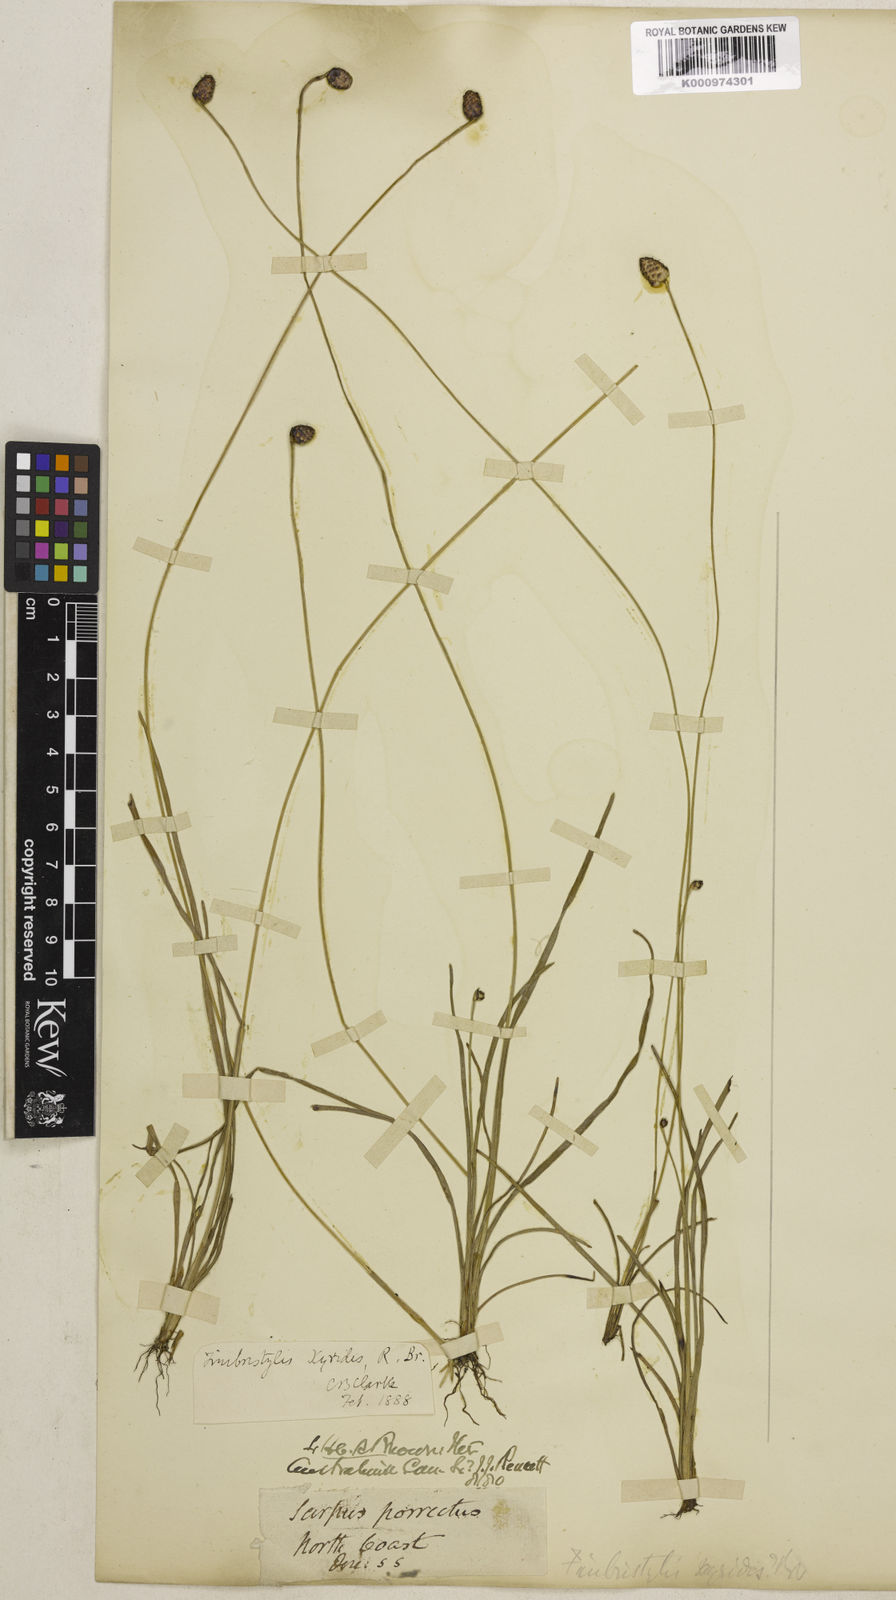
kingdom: Plantae
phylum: Tracheophyta
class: Liliopsida
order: Poales
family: Cyperaceae
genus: Fimbristylis
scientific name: Fimbristylis xyridis
